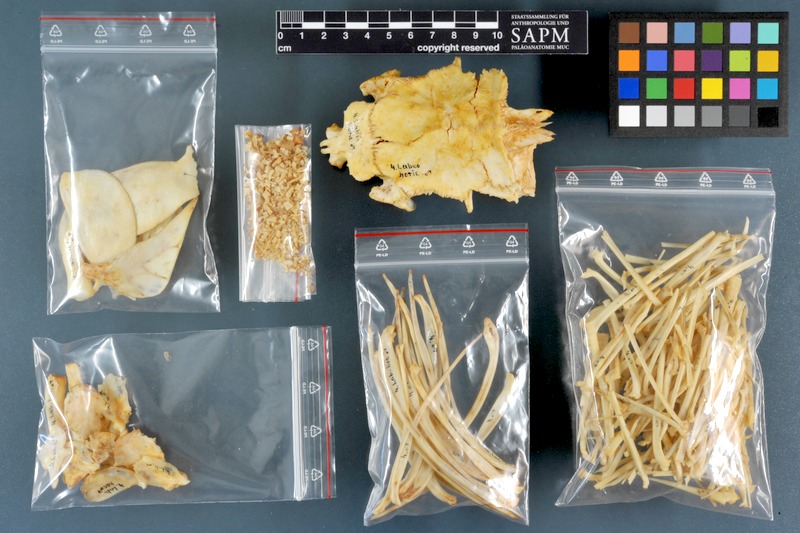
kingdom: Animalia
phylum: Chordata
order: Cypriniformes
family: Cyprinidae
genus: Labeo
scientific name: Labeo horie
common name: Assuan labeo
